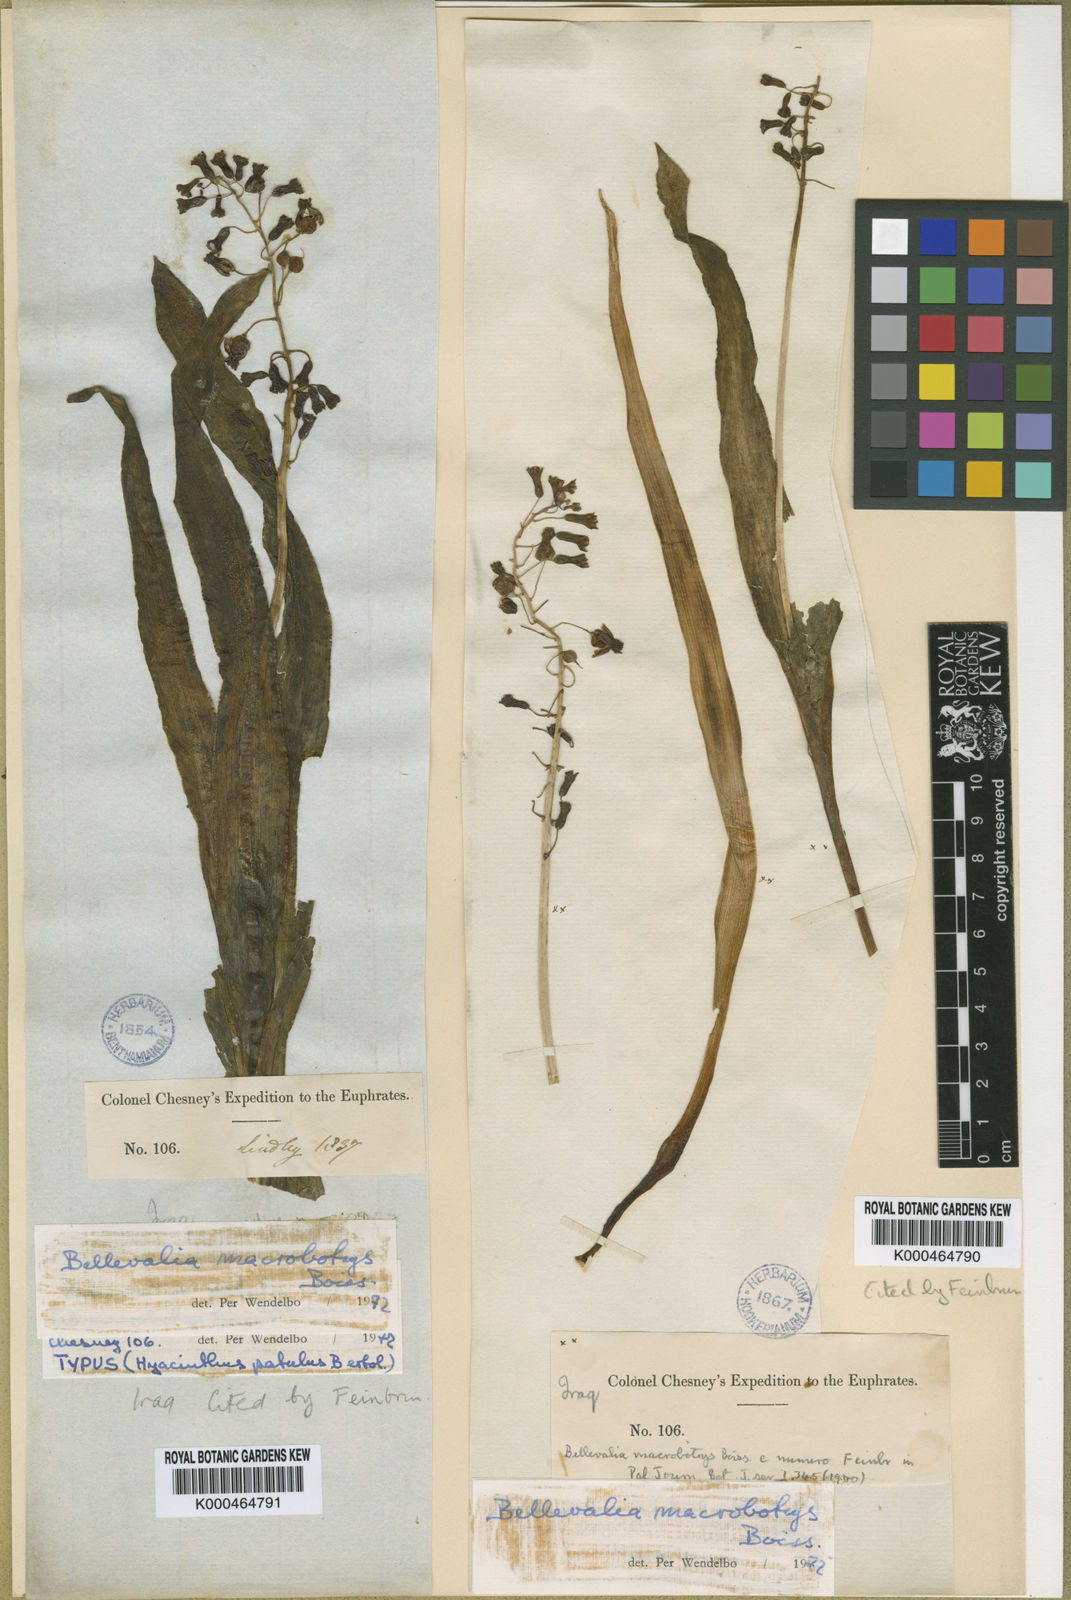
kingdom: Plantae
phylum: Tracheophyta
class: Liliopsida
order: Asparagales
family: Asparagaceae
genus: Bellevalia
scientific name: Bellevalia macrobotrys
